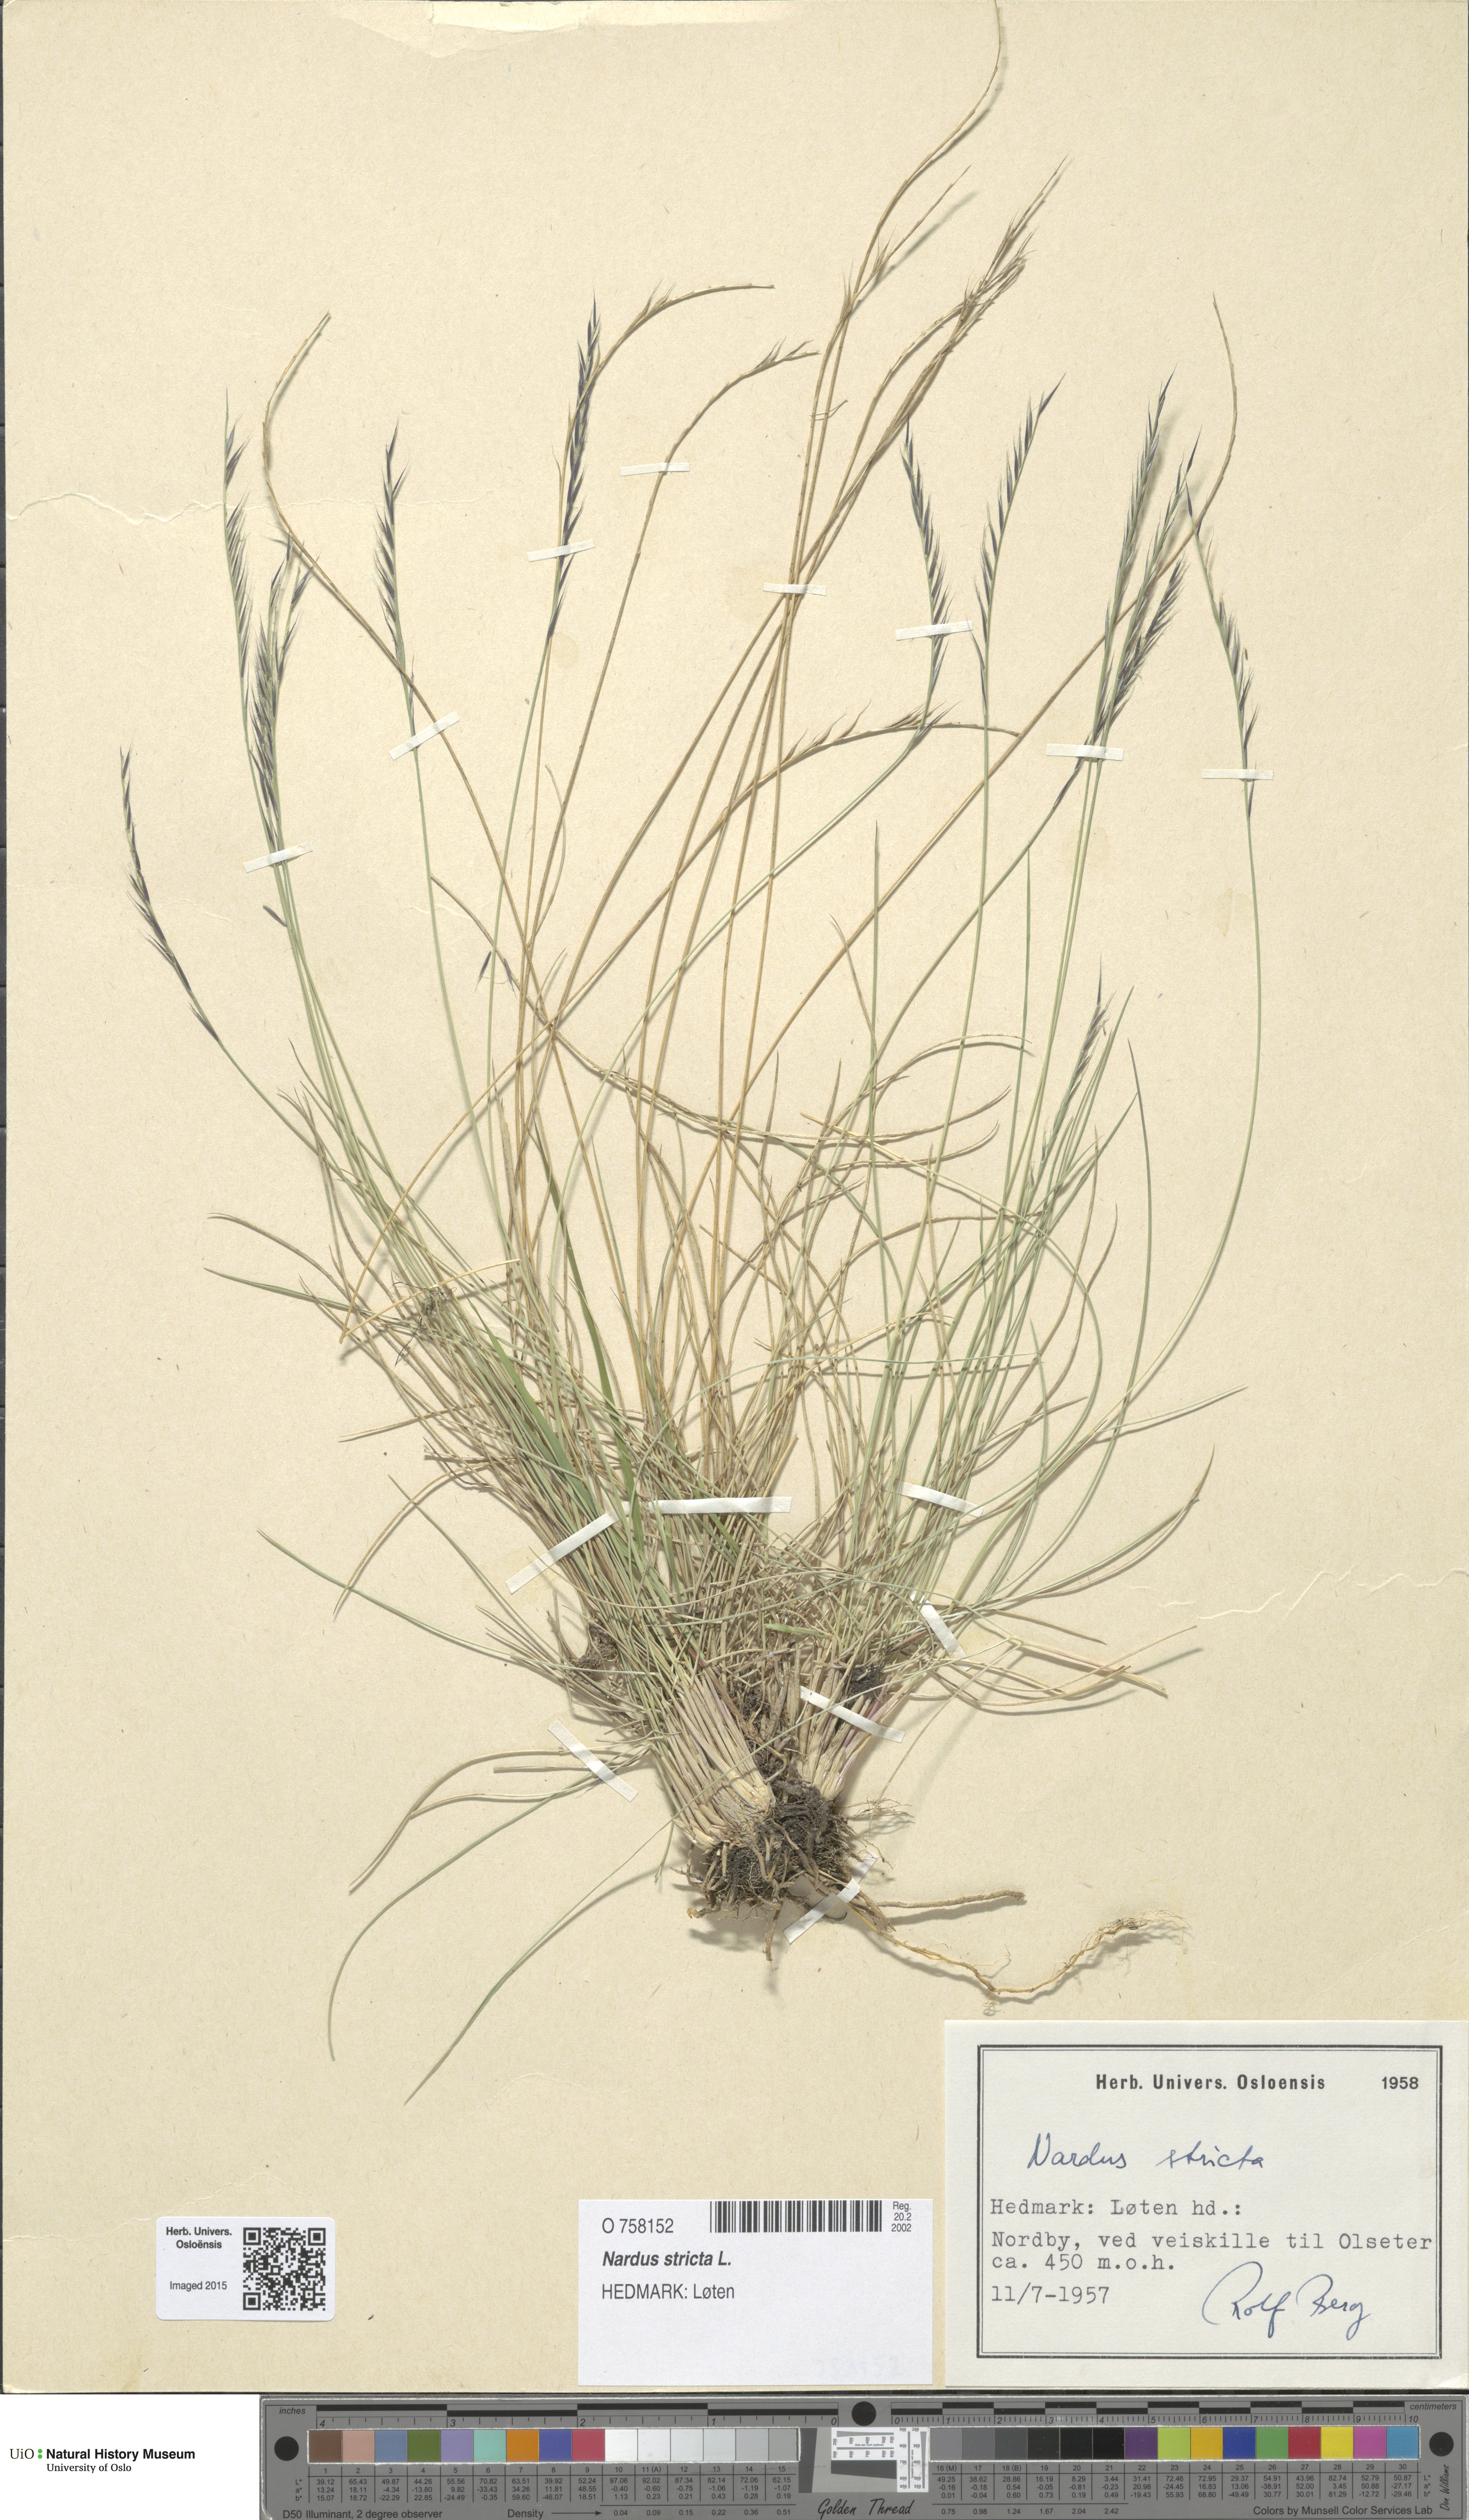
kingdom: Plantae
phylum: Tracheophyta
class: Liliopsida
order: Poales
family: Poaceae
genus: Nardus
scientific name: Nardus stricta
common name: Mat-grass
